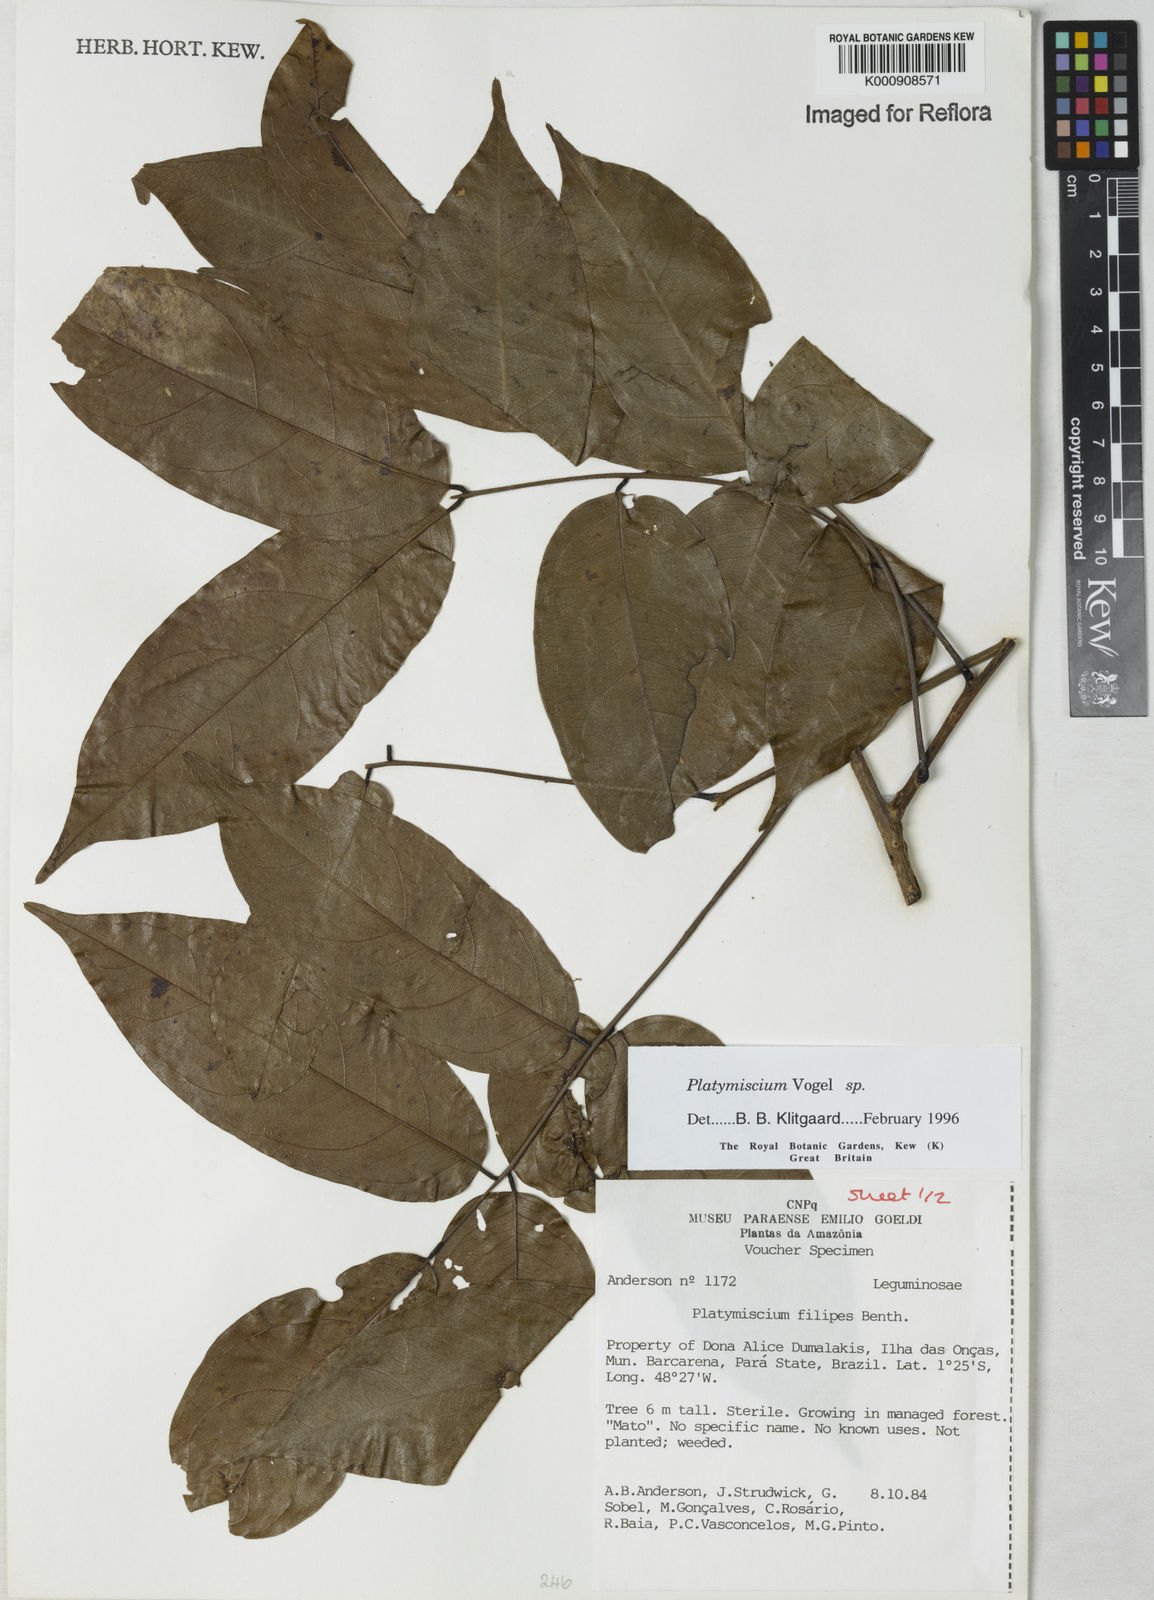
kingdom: Plantae
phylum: Tracheophyta
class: Magnoliopsida
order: Fabales
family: Fabaceae
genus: Platymiscium
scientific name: Platymiscium
